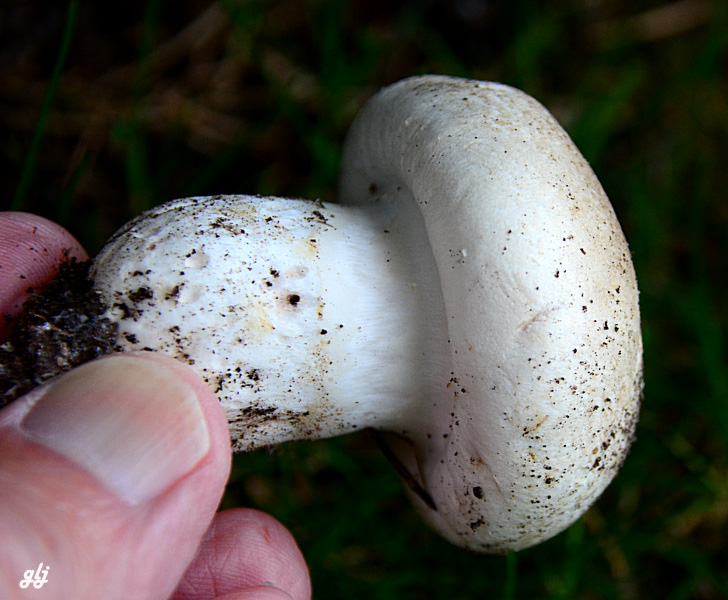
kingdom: Fungi
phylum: Basidiomycota
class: Agaricomycetes
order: Agaricales
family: Agaricaceae
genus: Agaricus
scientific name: Agaricus
